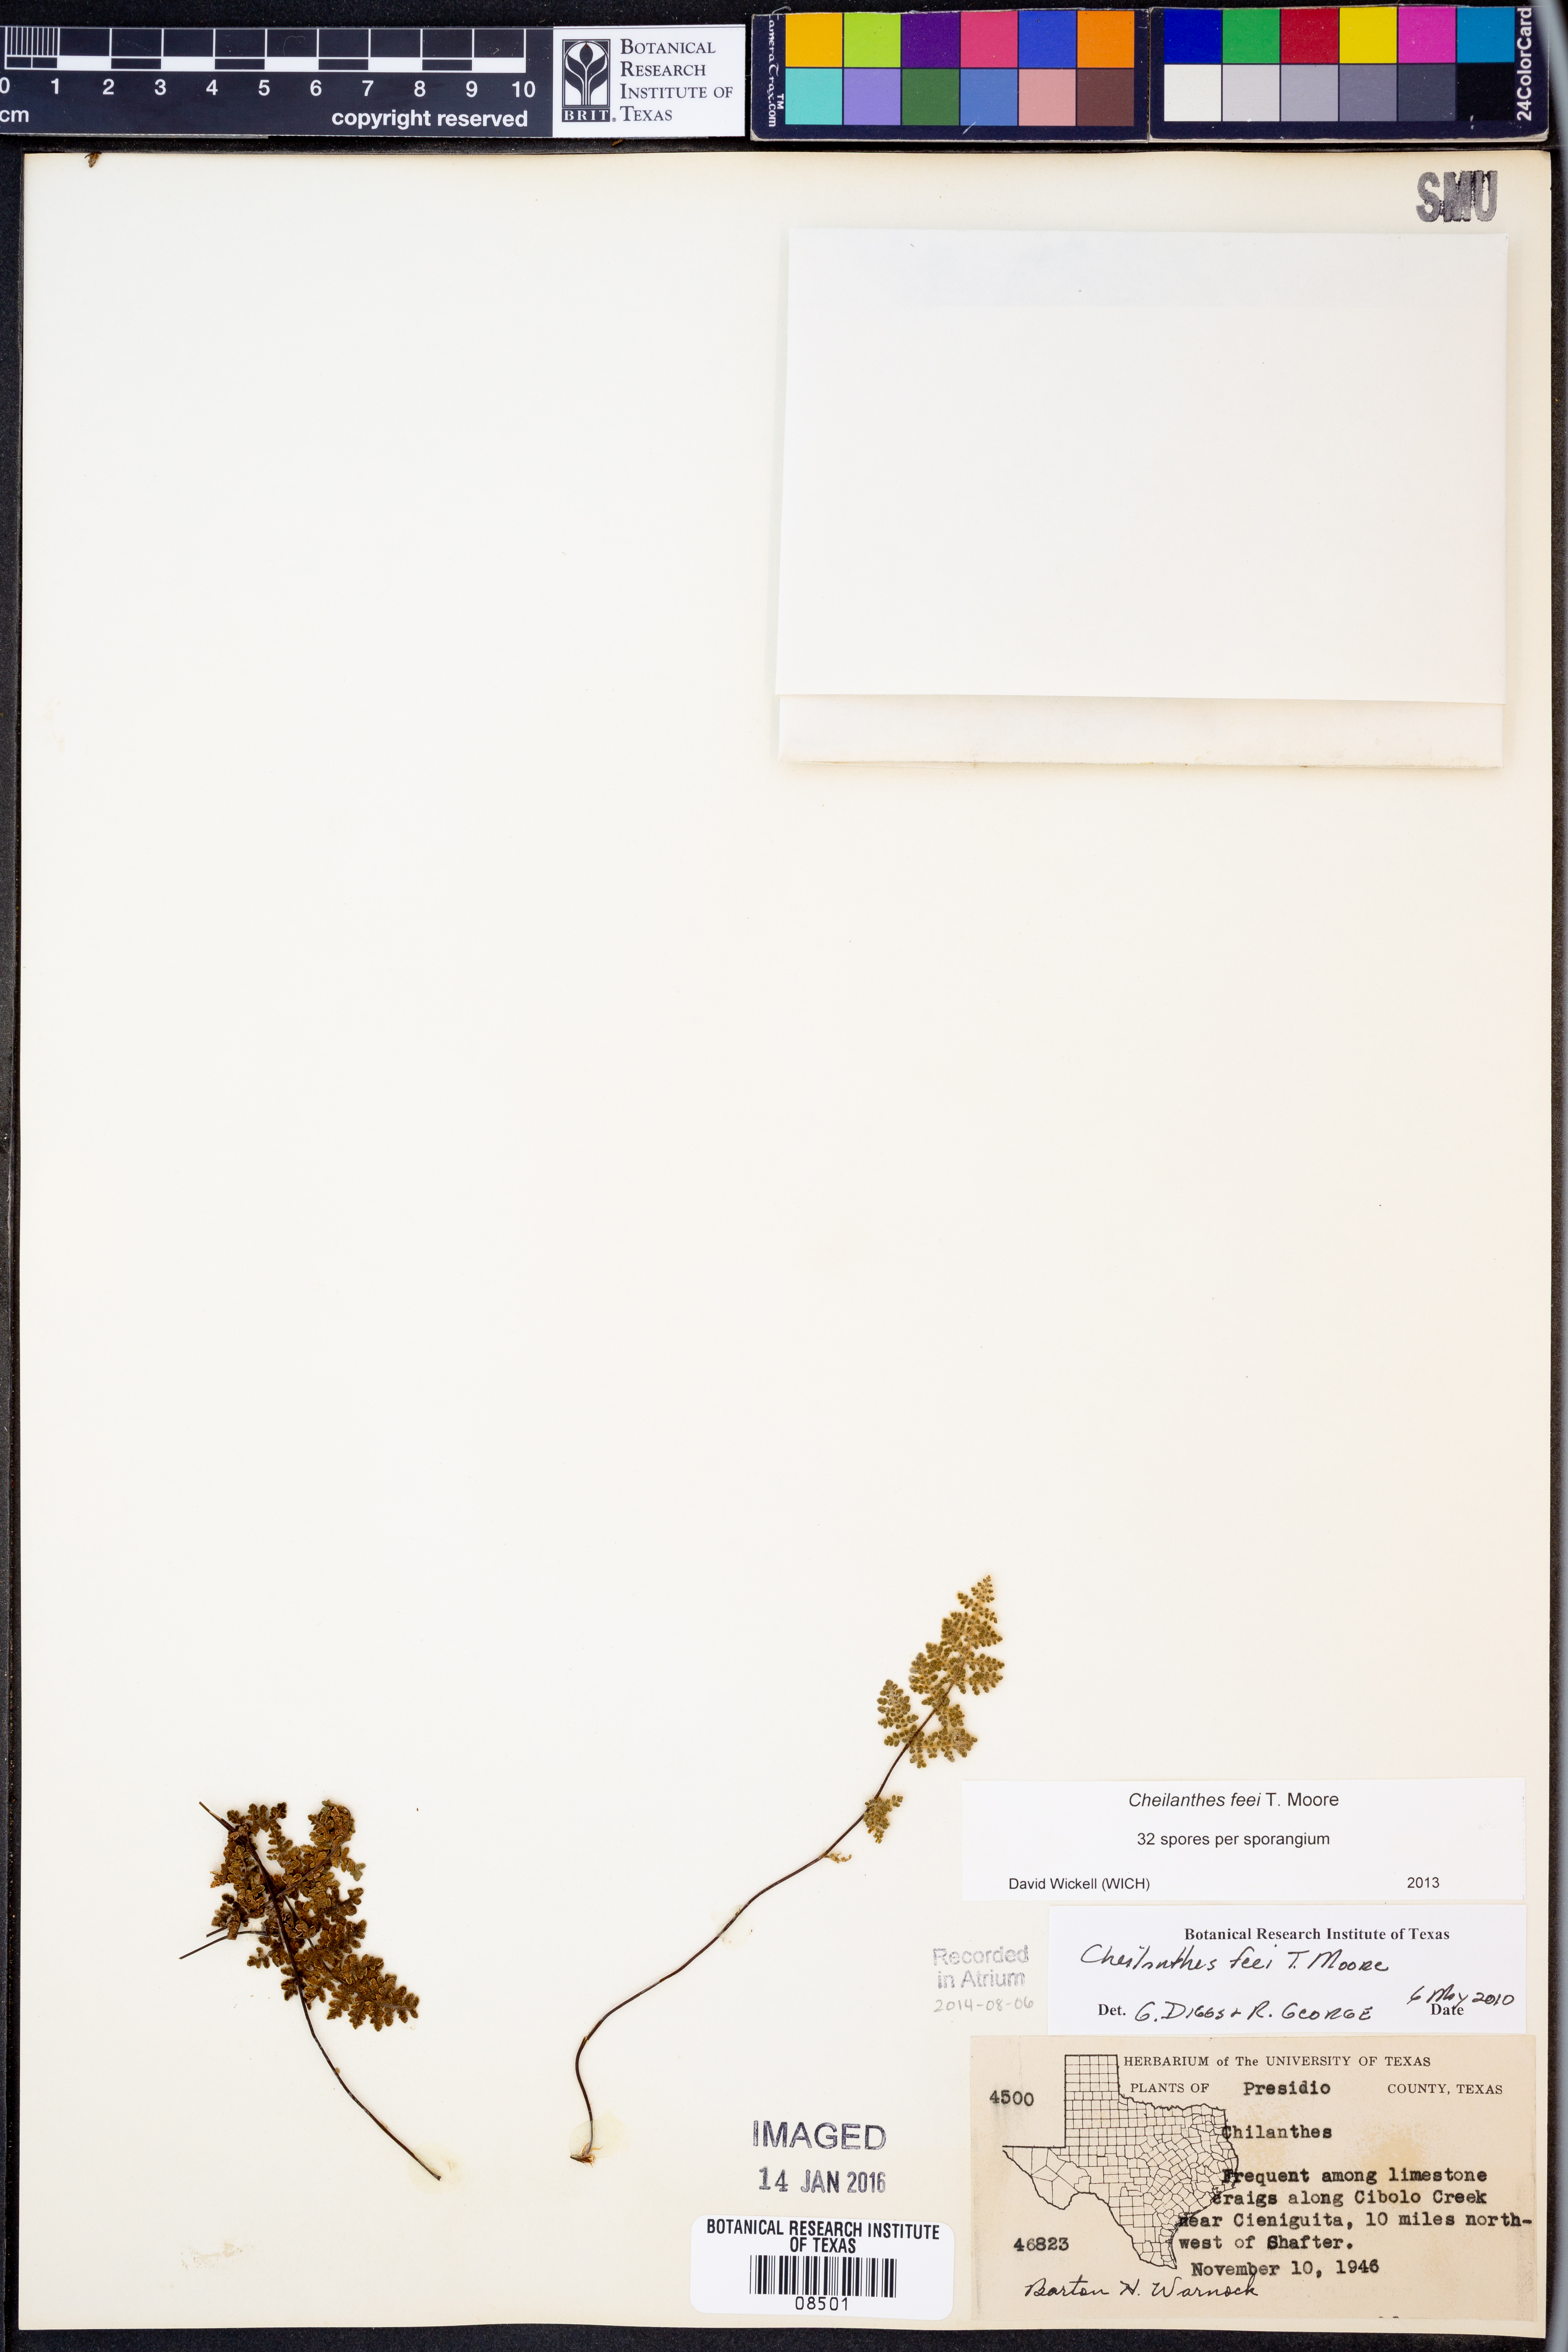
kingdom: Plantae
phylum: Tracheophyta
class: Polypodiopsida
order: Polypodiales
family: Pteridaceae
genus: Myriopteris
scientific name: Myriopteris gracilis
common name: Fee's lip fern
